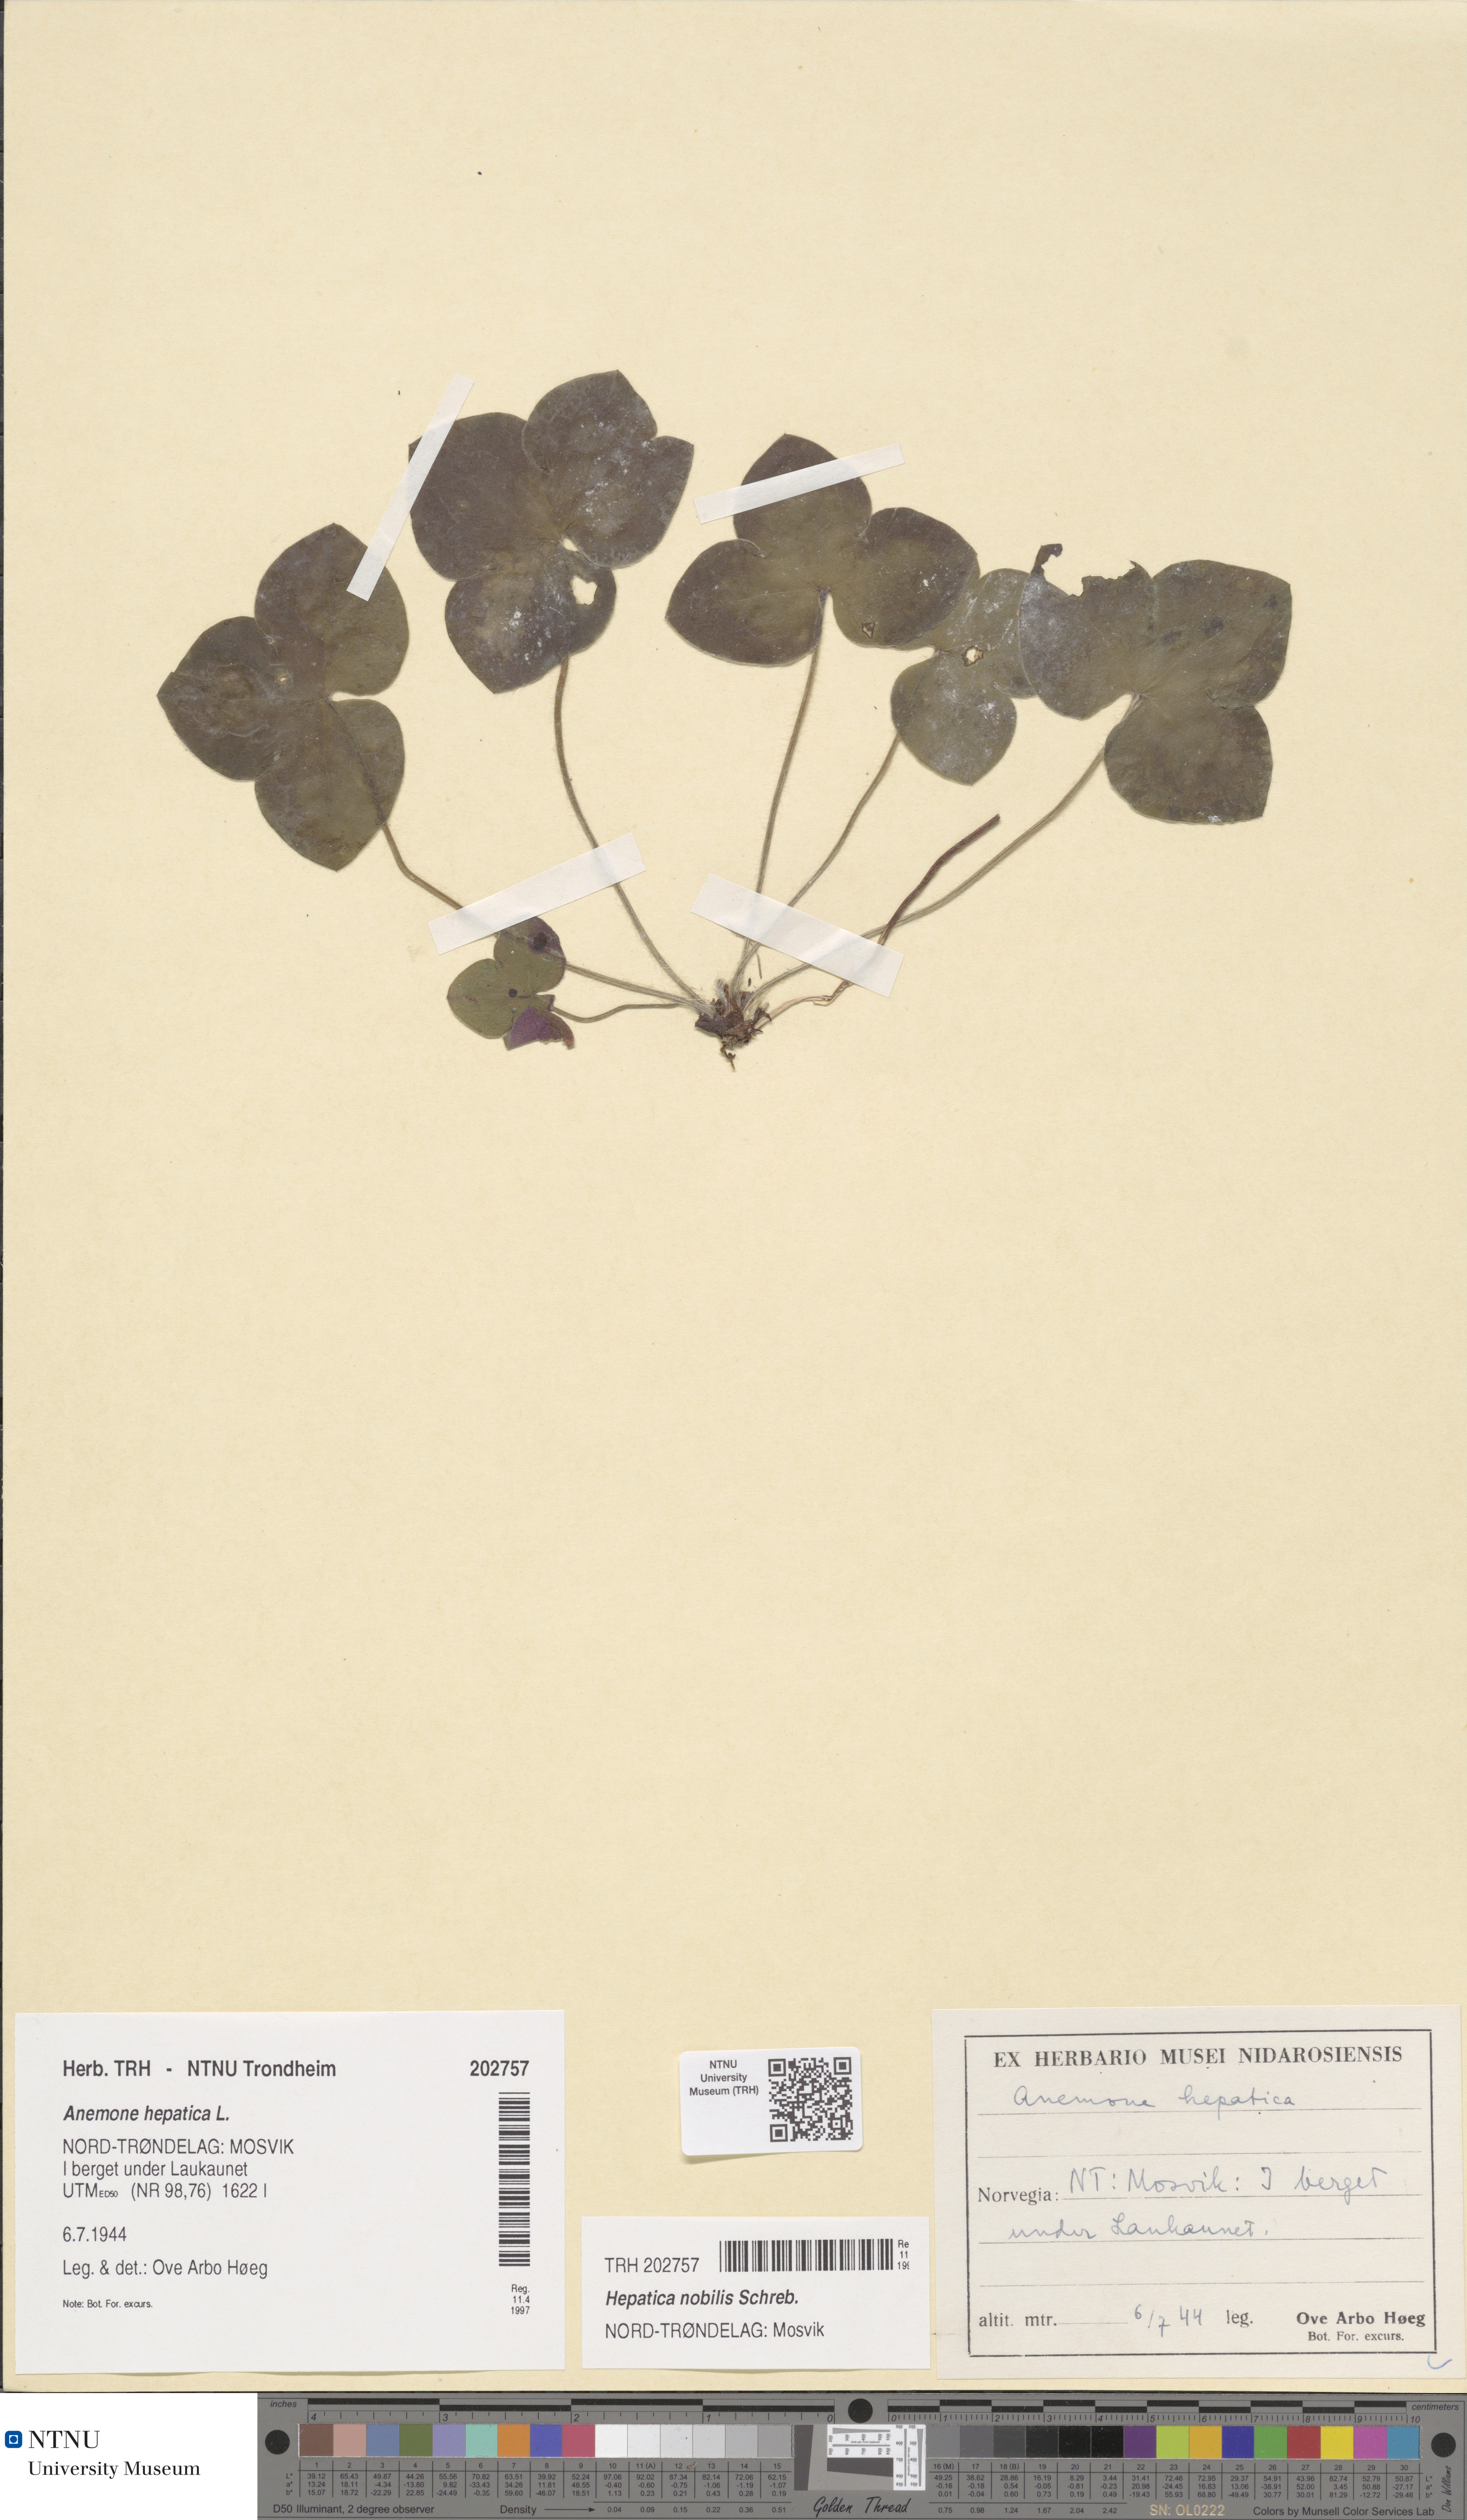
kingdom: Plantae
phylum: Tracheophyta
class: Magnoliopsida
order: Ranunculales
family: Ranunculaceae
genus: Hepatica
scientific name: Hepatica nobilis
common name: Liverleaf
